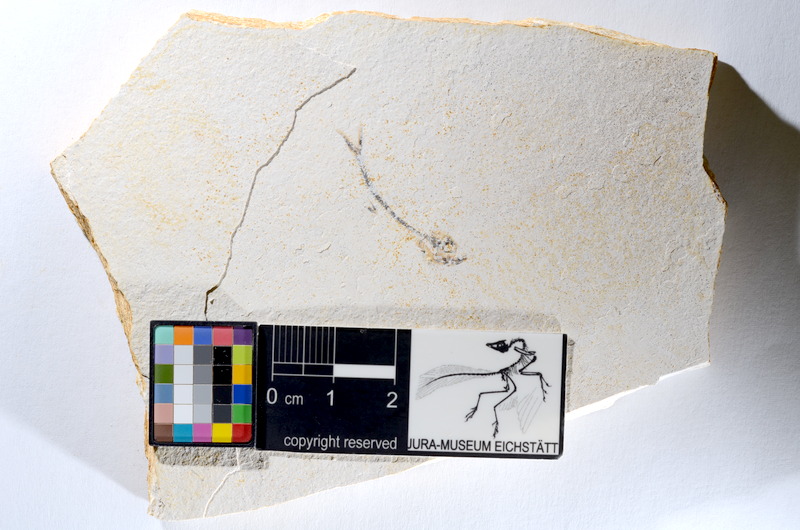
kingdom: Animalia
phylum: Chordata
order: Salmoniformes
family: Orthogonikleithridae
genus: Orthogonikleithrus
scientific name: Orthogonikleithrus hoelli
